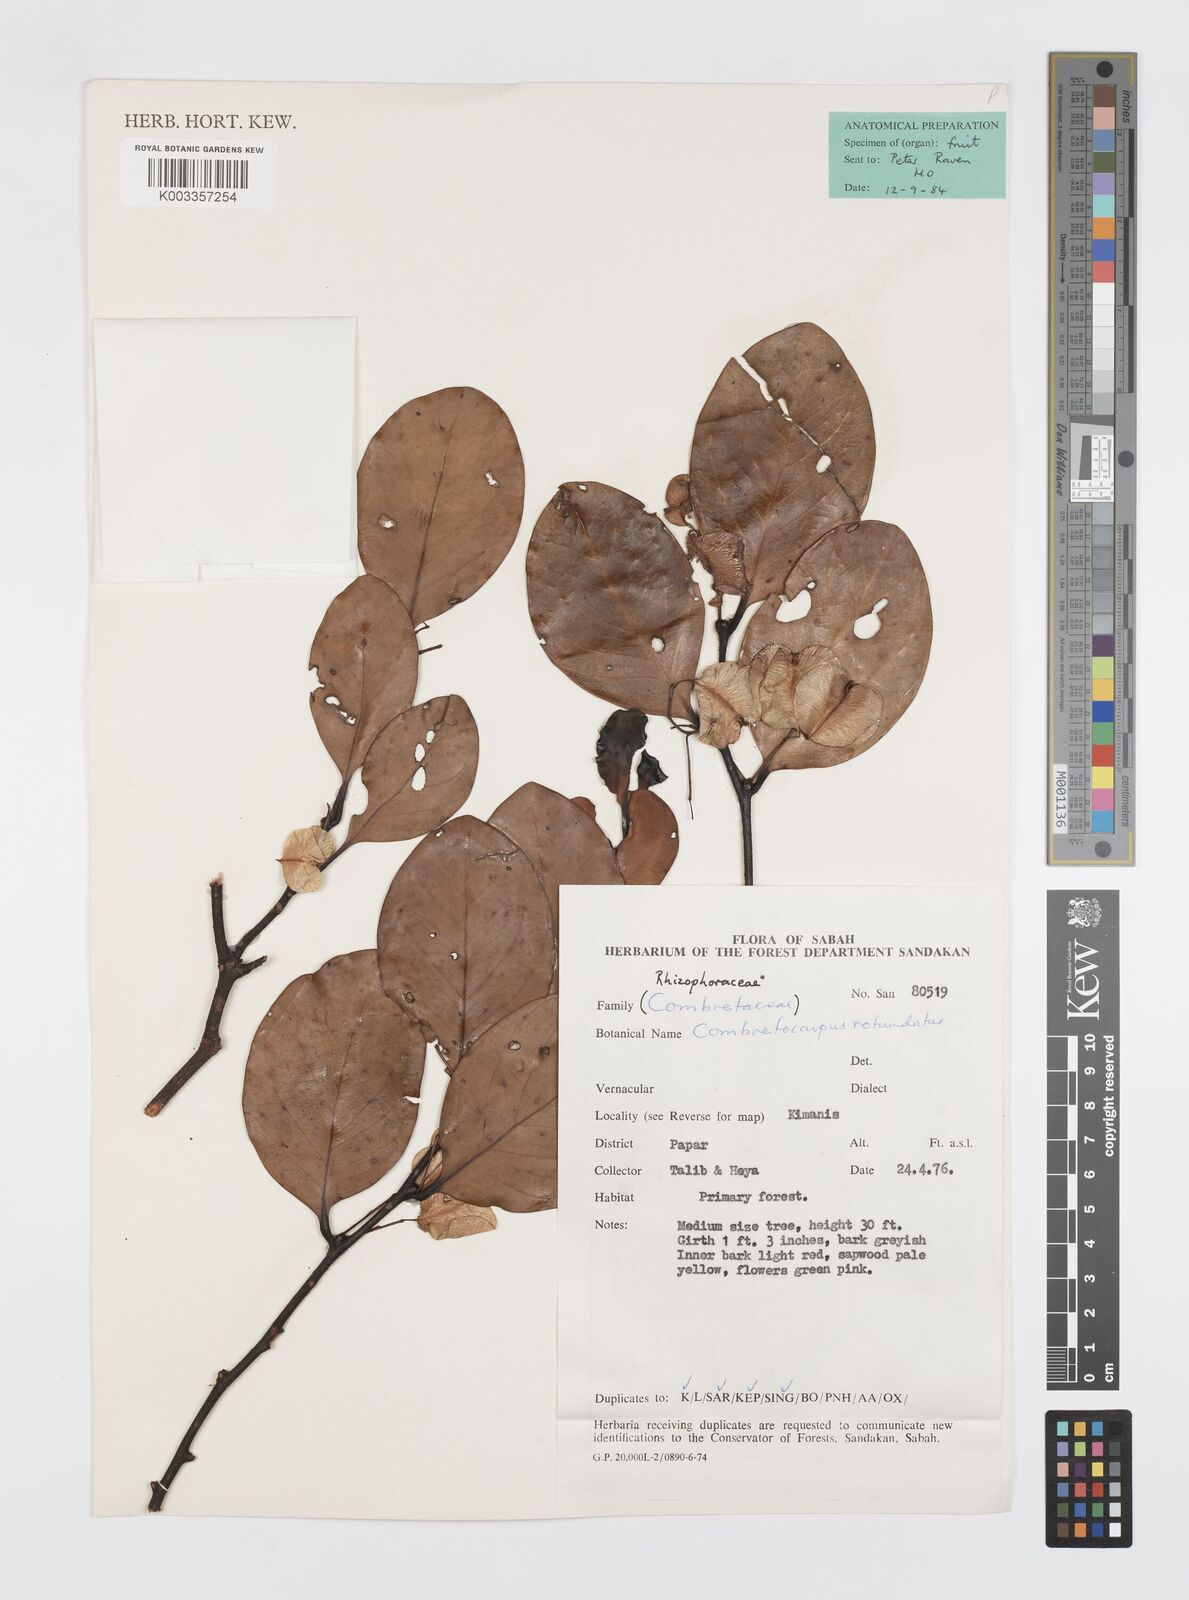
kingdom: Plantae
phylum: Tracheophyta
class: Magnoliopsida
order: Cucurbitales
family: Anisophylleaceae
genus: Combretocarpus
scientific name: Combretocarpus rotundatus
